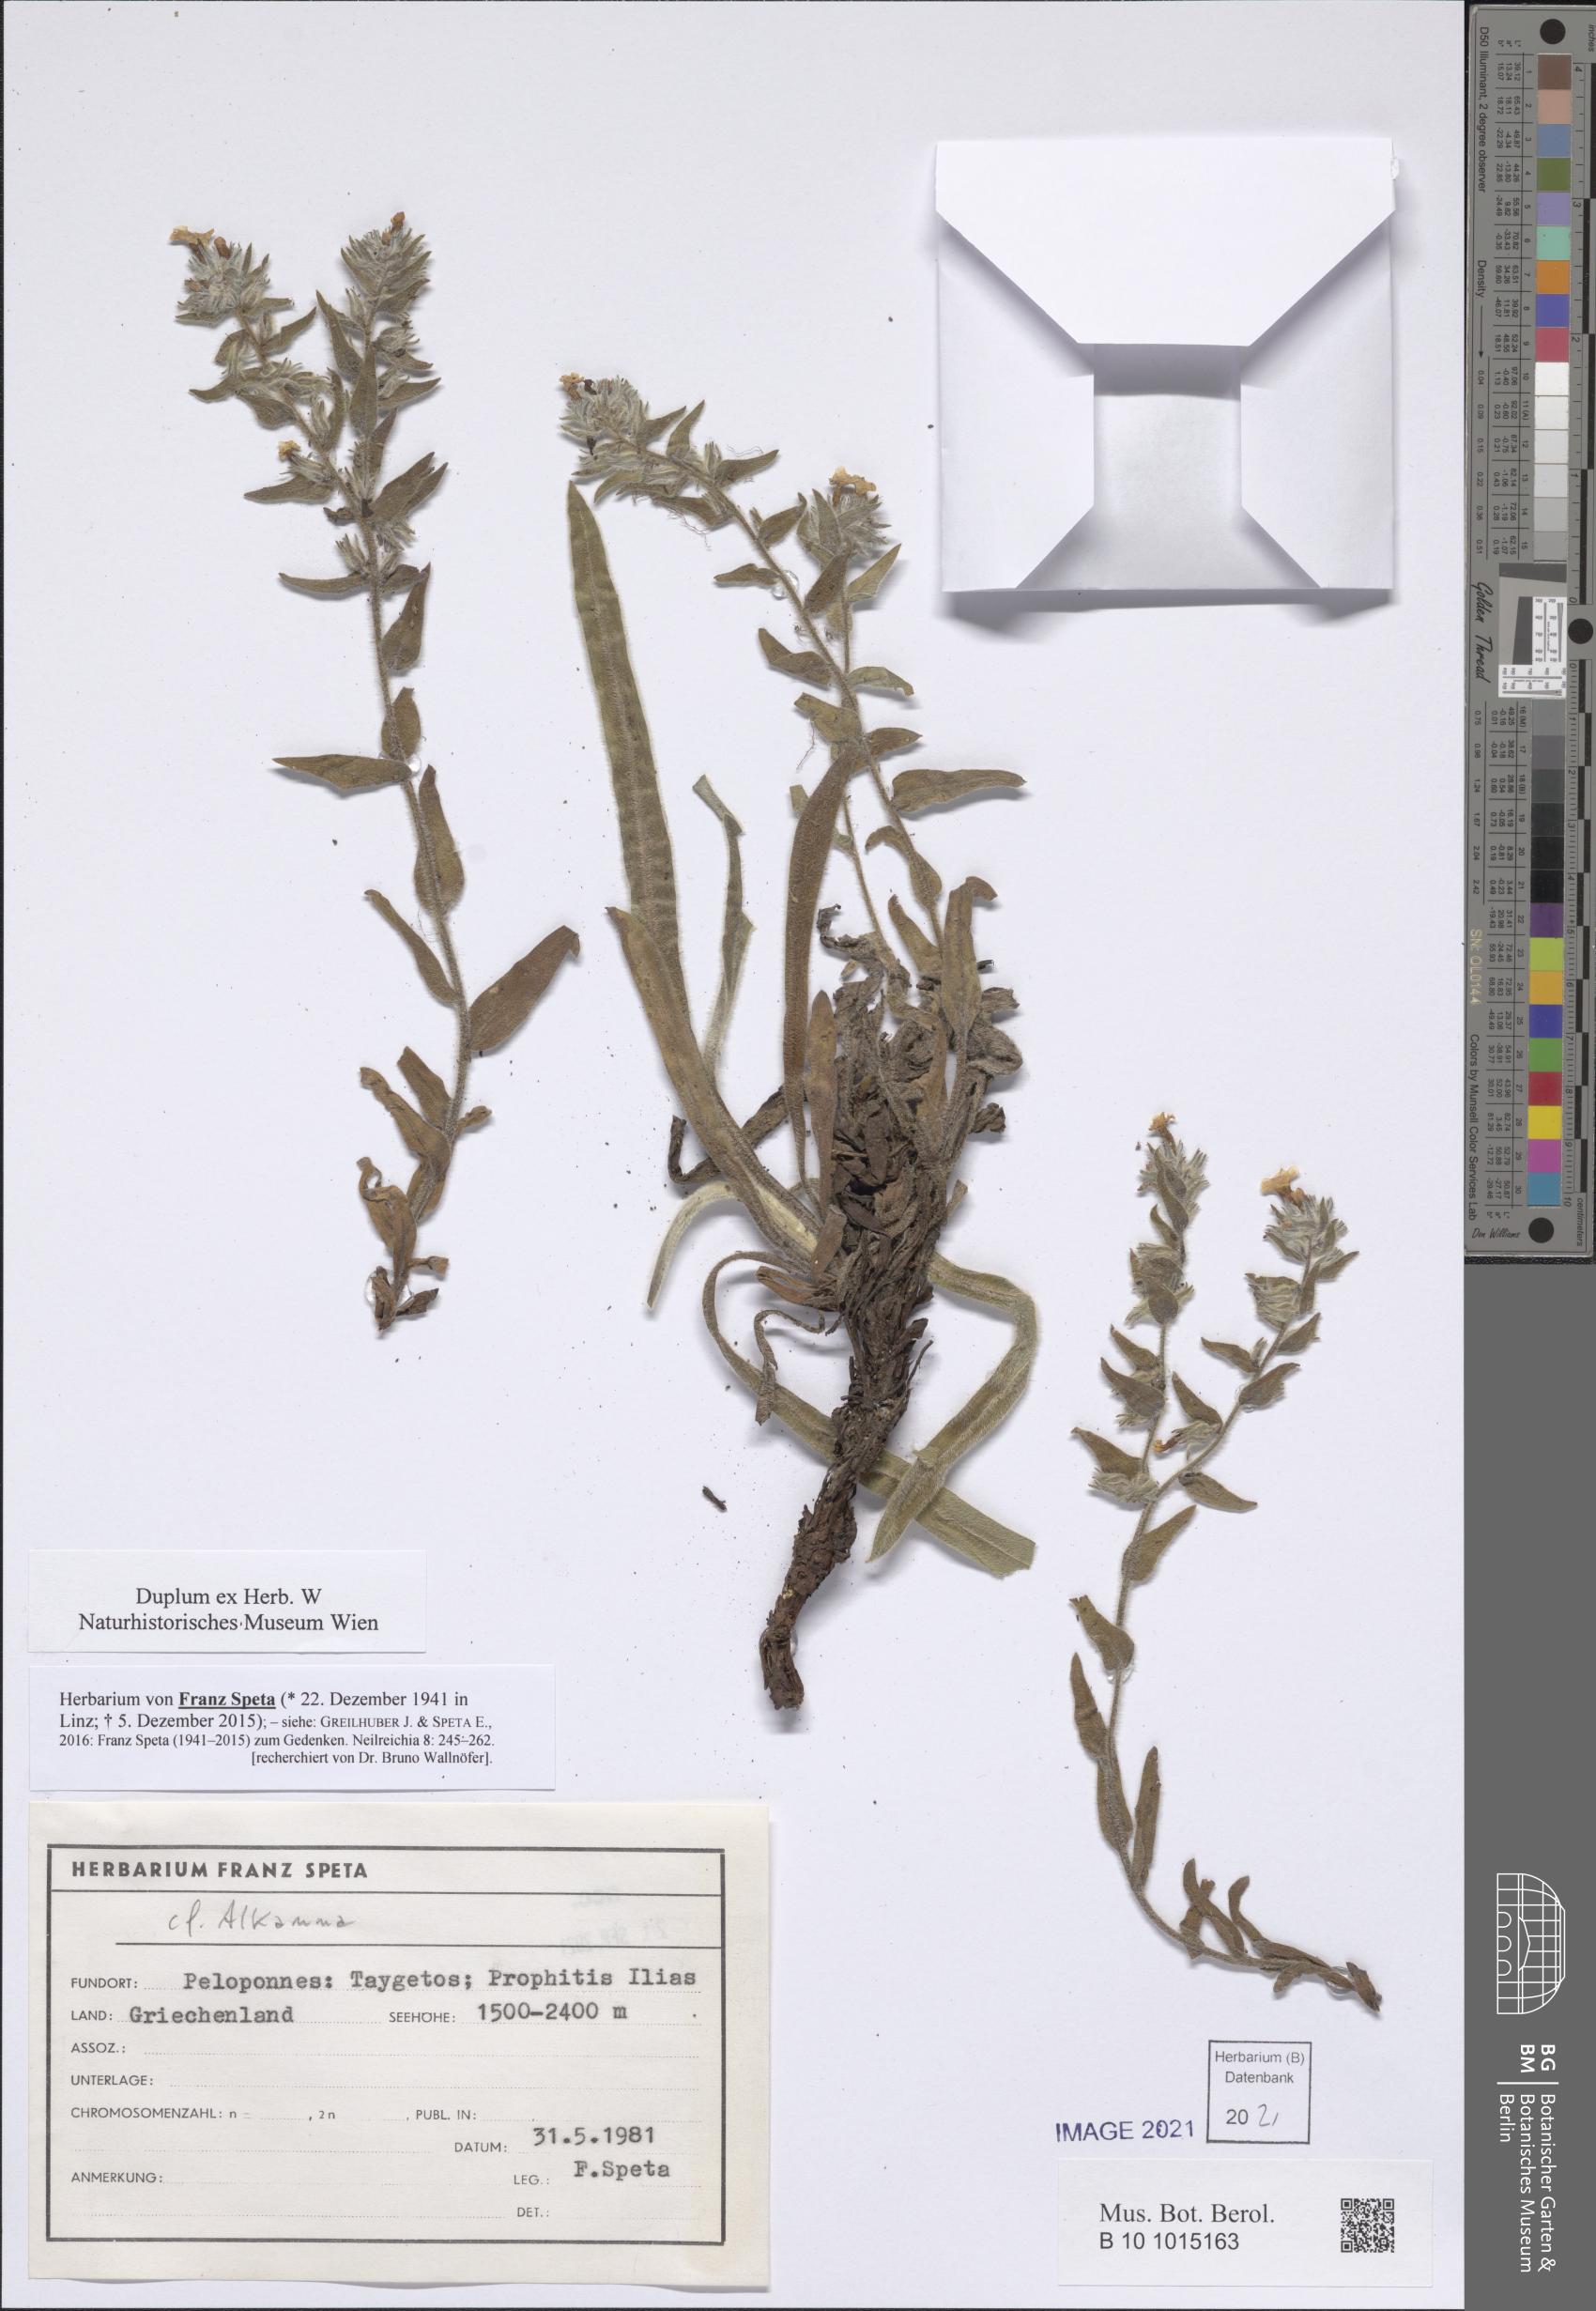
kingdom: Plantae
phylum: Tracheophyta
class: Magnoliopsida
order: Boraginales
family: Boraginaceae
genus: Alkanna
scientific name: Alkanna
